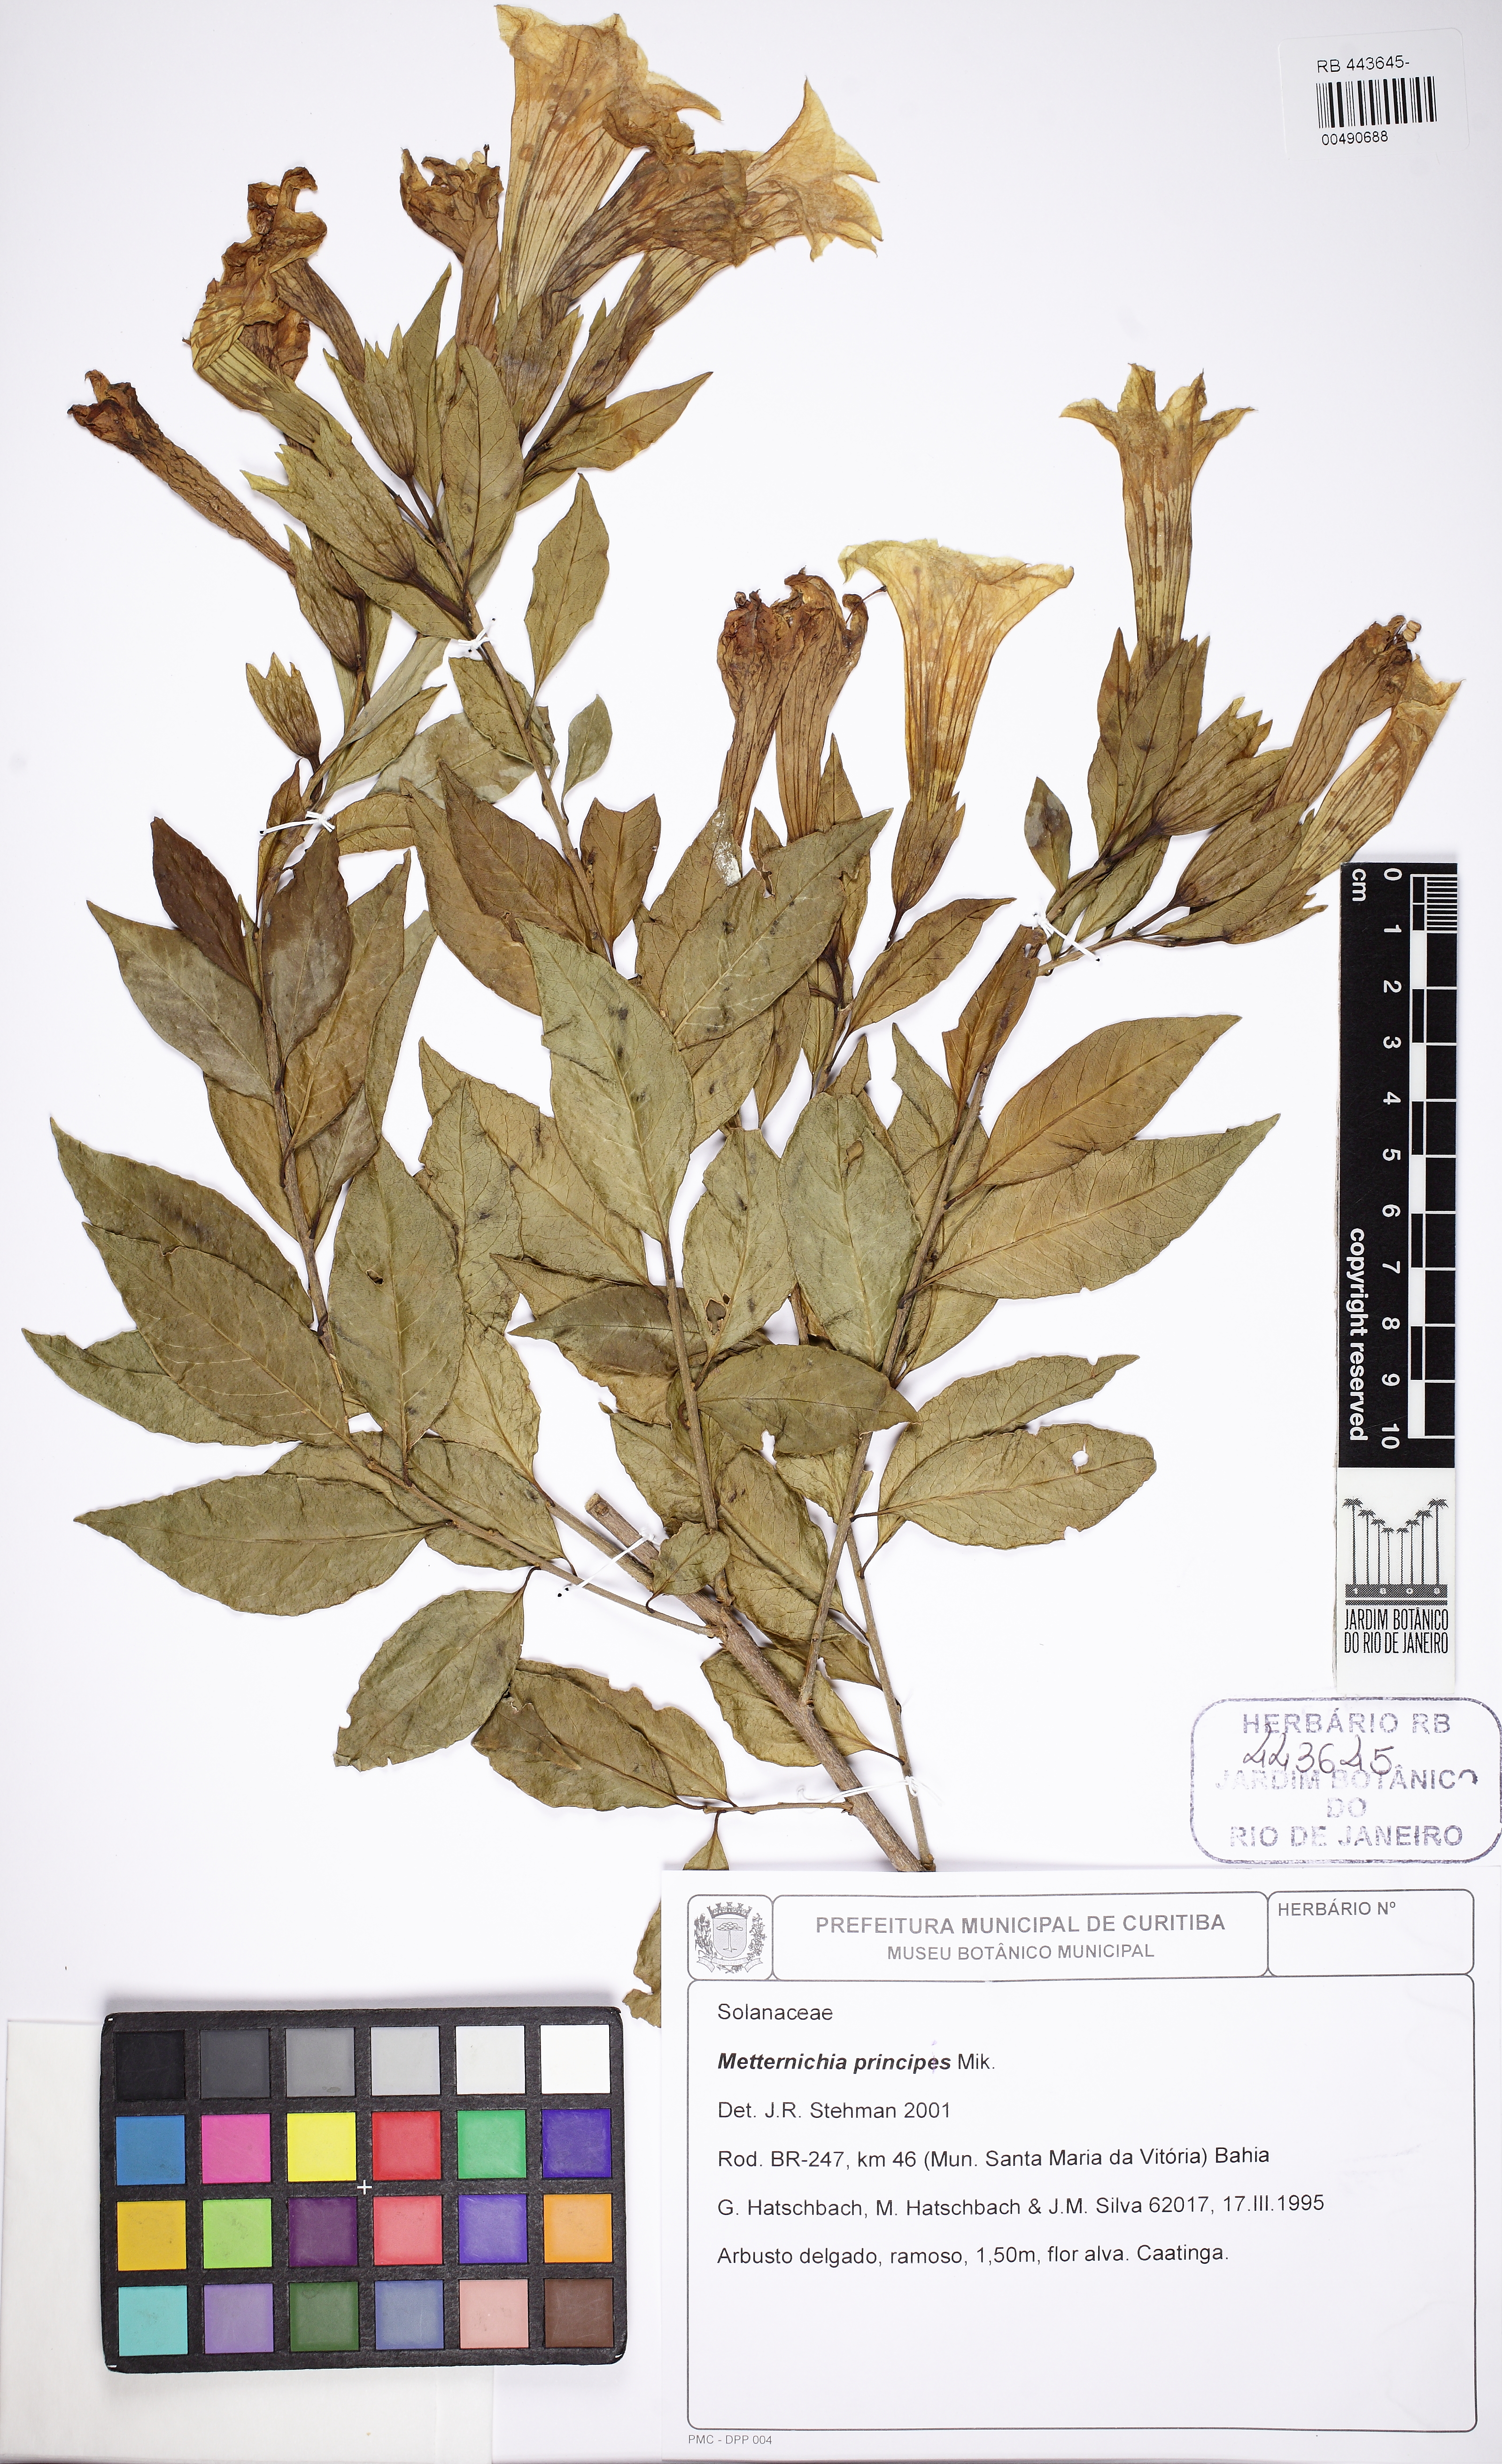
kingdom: Plantae
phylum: Tracheophyta
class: Magnoliopsida
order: Solanales
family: Solanaceae
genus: Metternichia
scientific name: Metternichia princeps
